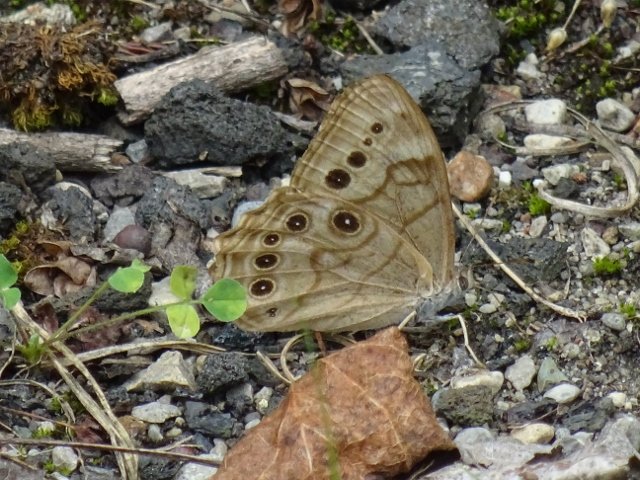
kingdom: Animalia
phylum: Arthropoda
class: Insecta
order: Lepidoptera
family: Nymphalidae
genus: Lethe
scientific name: Lethe anthedon
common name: Northern Pearly-Eye
